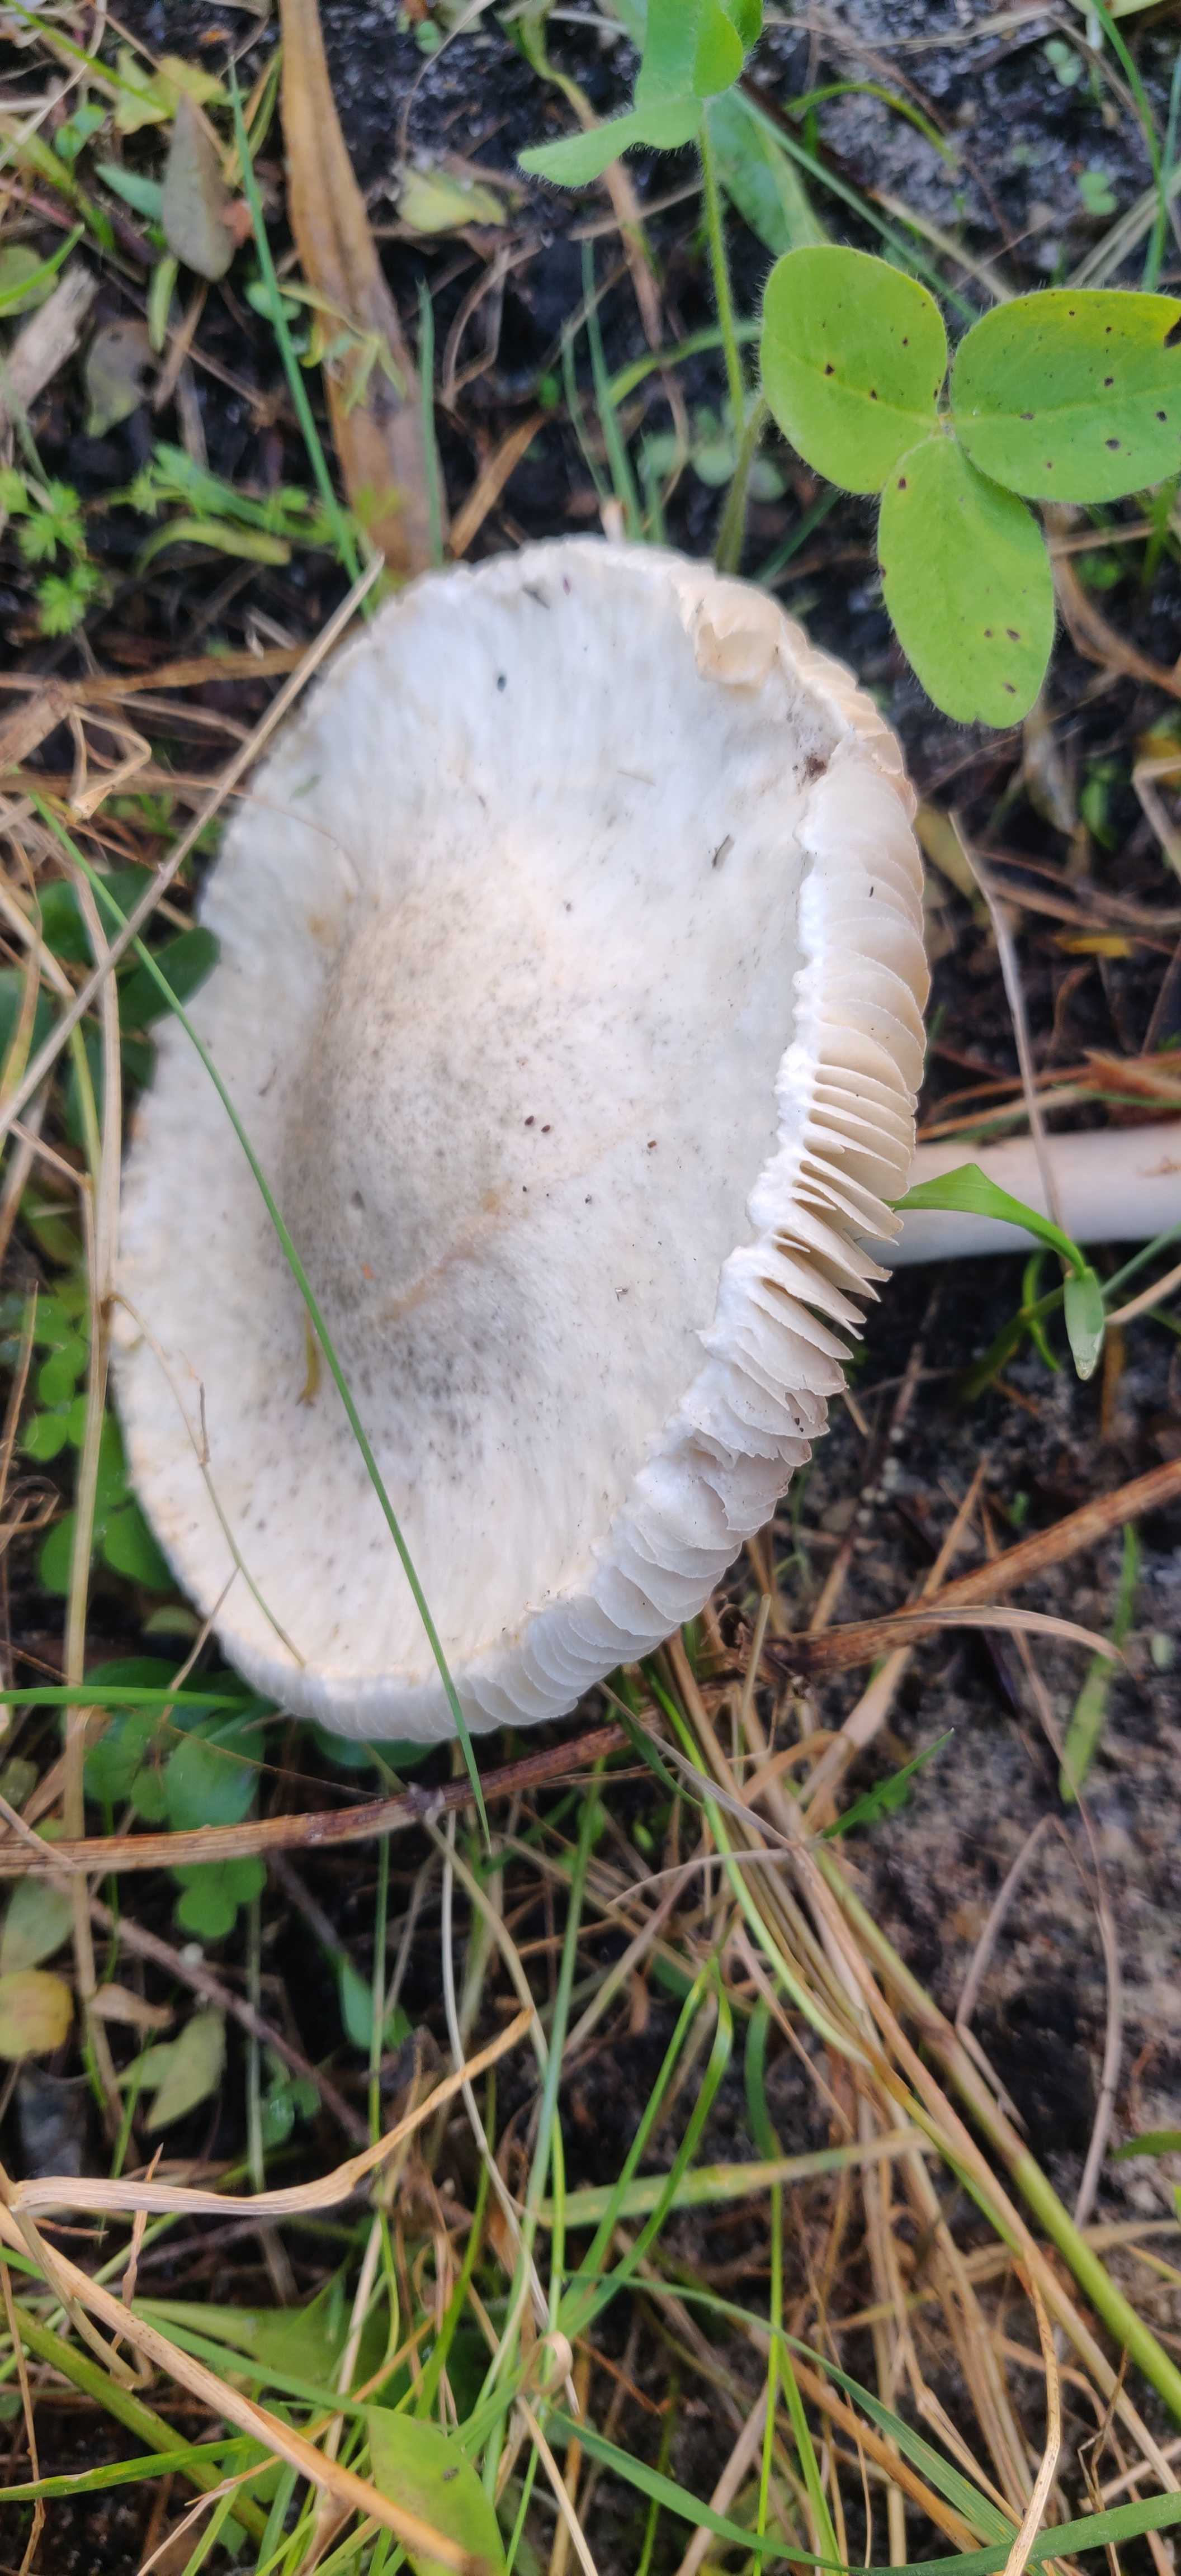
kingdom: Fungi
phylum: Basidiomycota
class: Agaricomycetes
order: Agaricales
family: Agaricaceae
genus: Leucoagaricus
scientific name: Leucoagaricus leucothites
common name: rosabladet silkehat
